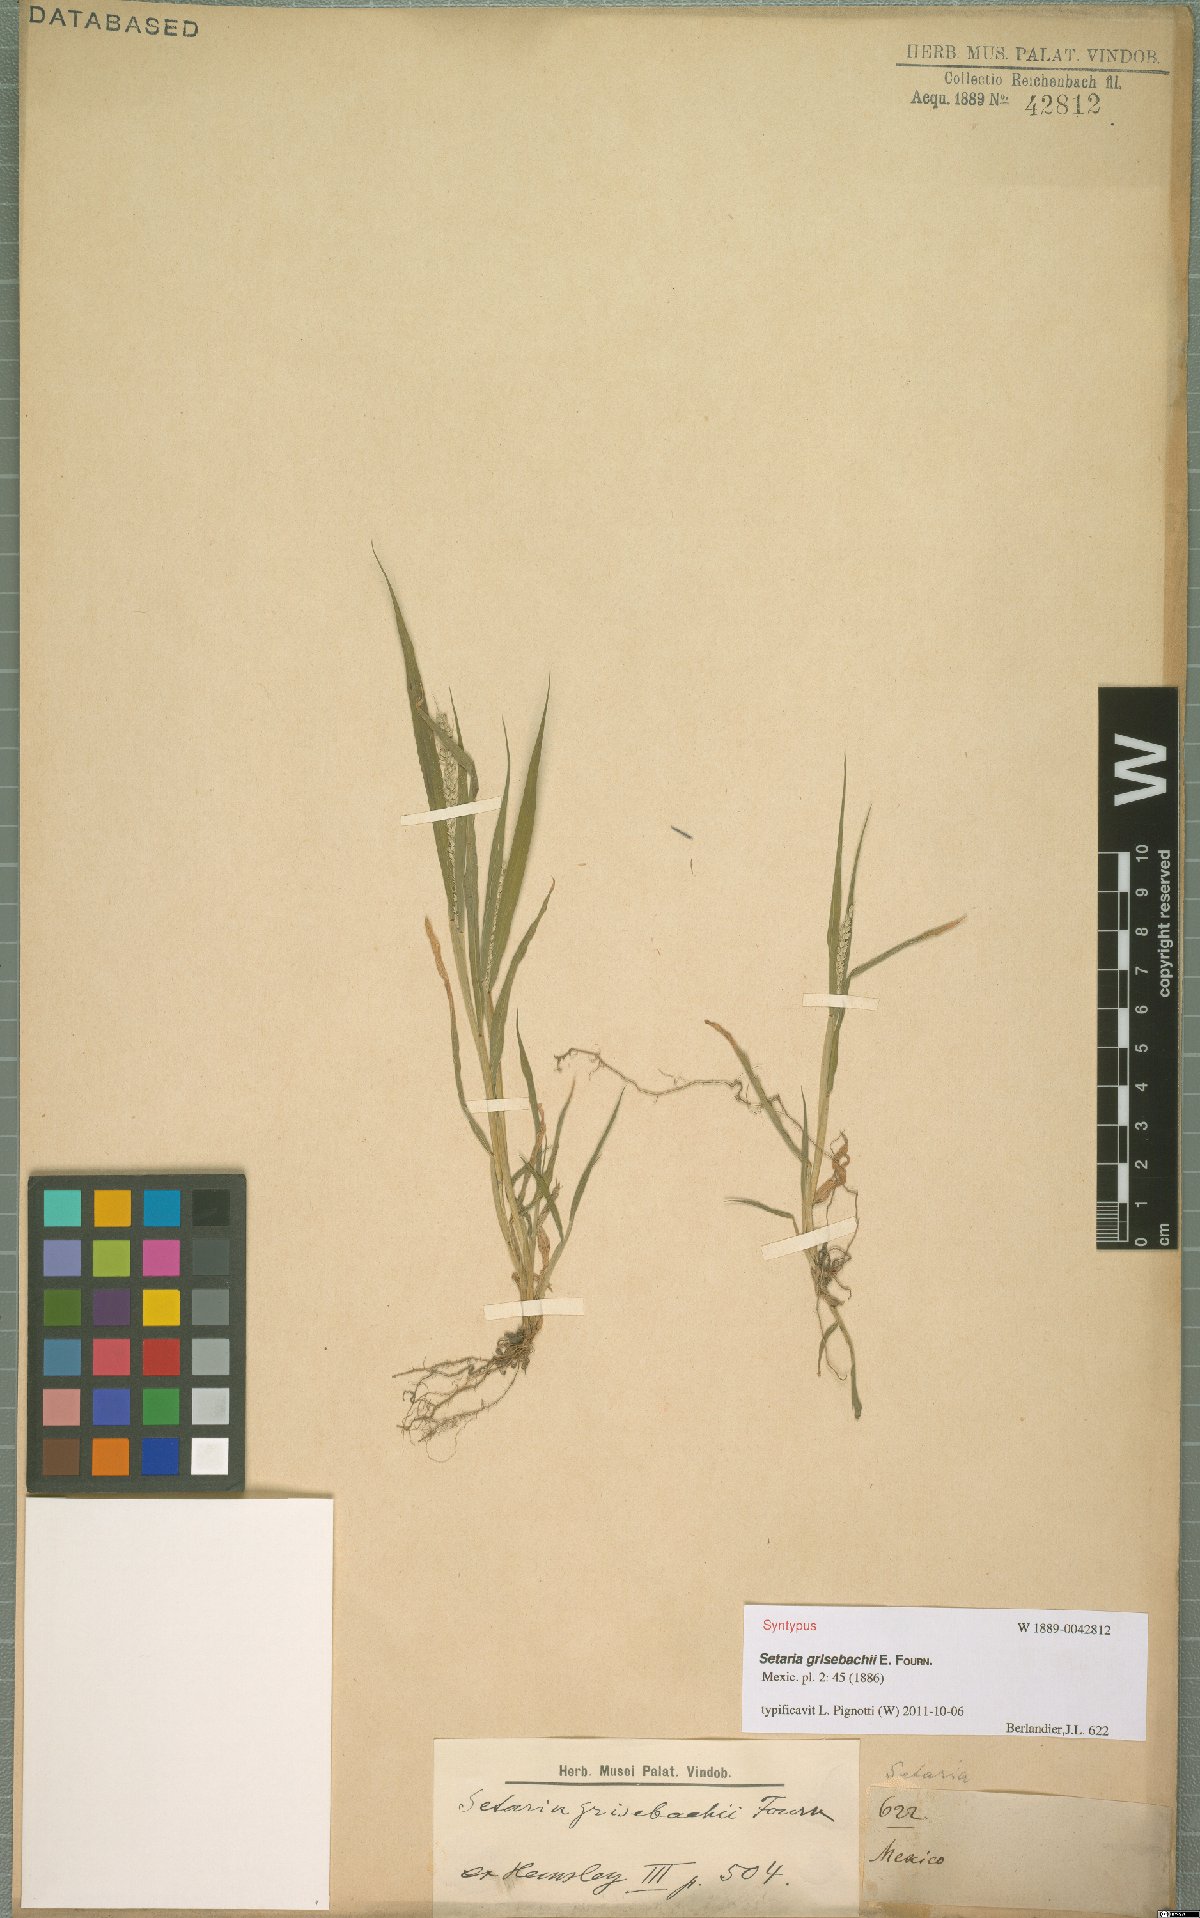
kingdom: Plantae
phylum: Tracheophyta
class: Liliopsida
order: Poales
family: Poaceae
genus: Setaria
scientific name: Setaria grisebachii
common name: Grisebach's bristle grass
